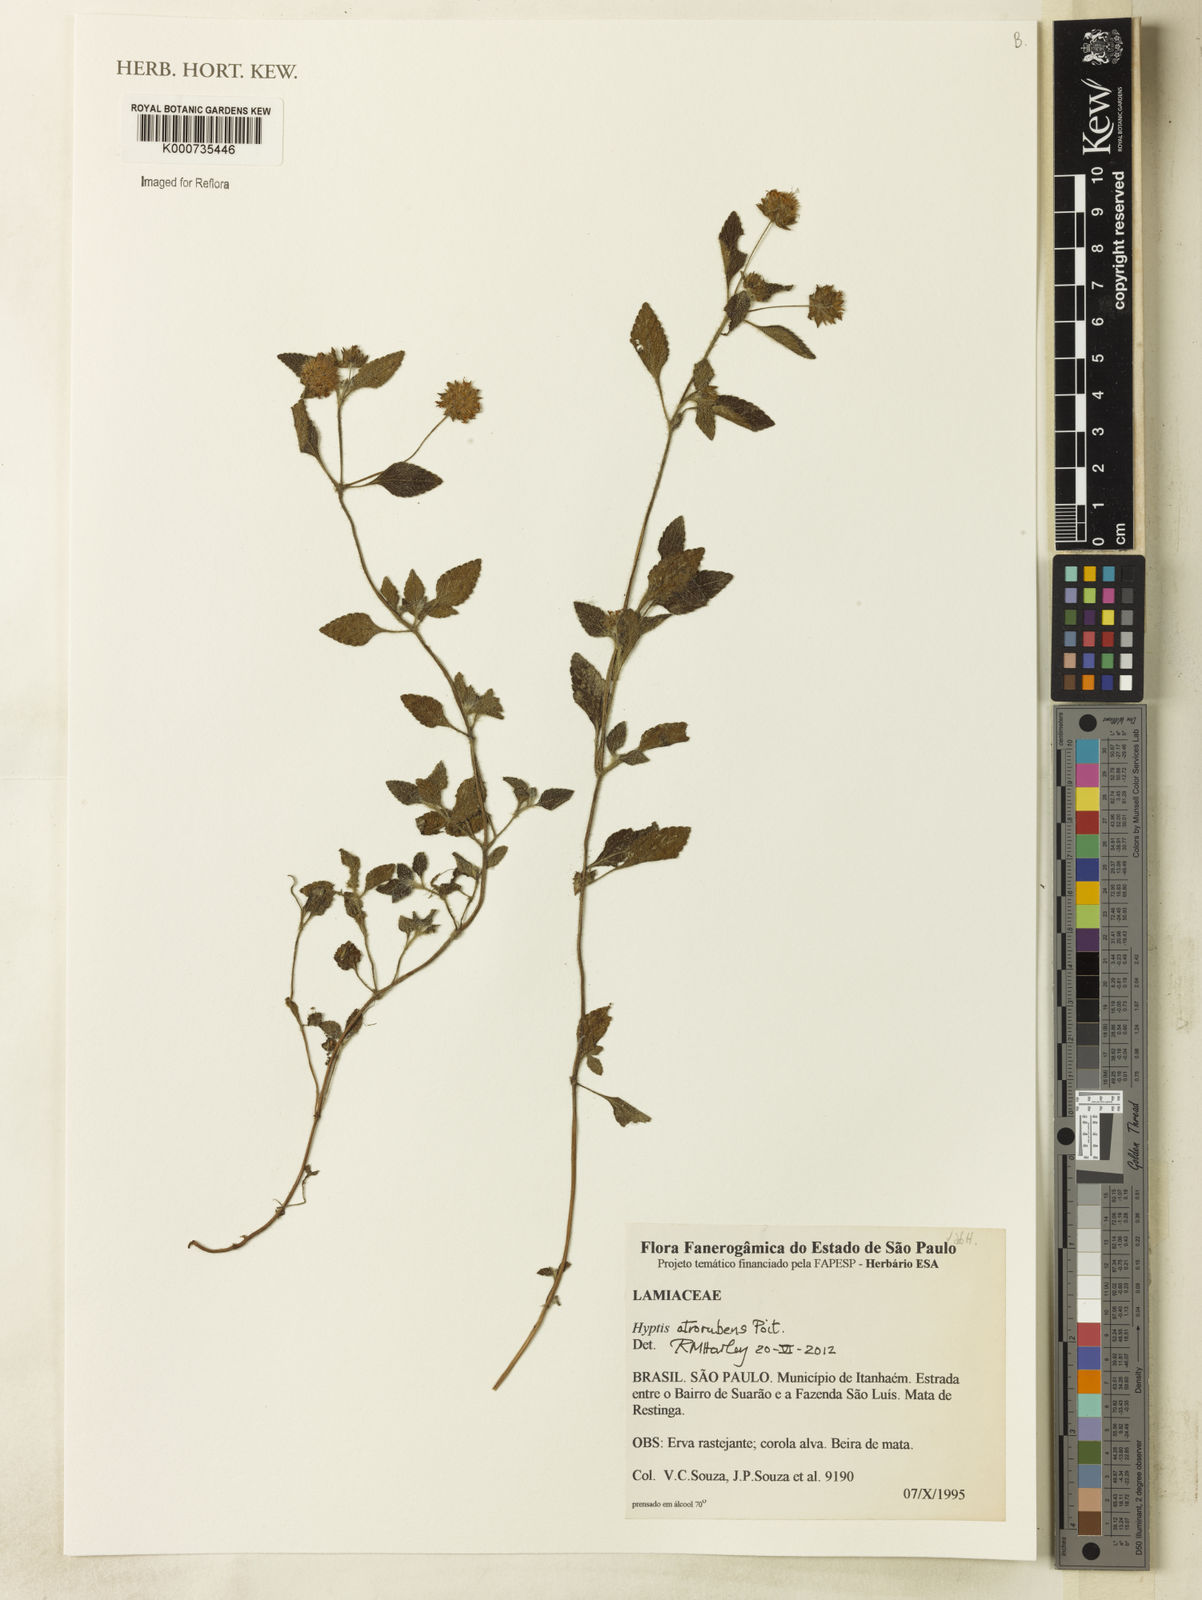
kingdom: Plantae
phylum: Tracheophyta
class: Magnoliopsida
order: Lamiales
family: Lamiaceae
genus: Hyptis
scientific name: Hyptis atrorubens
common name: Lanmant
